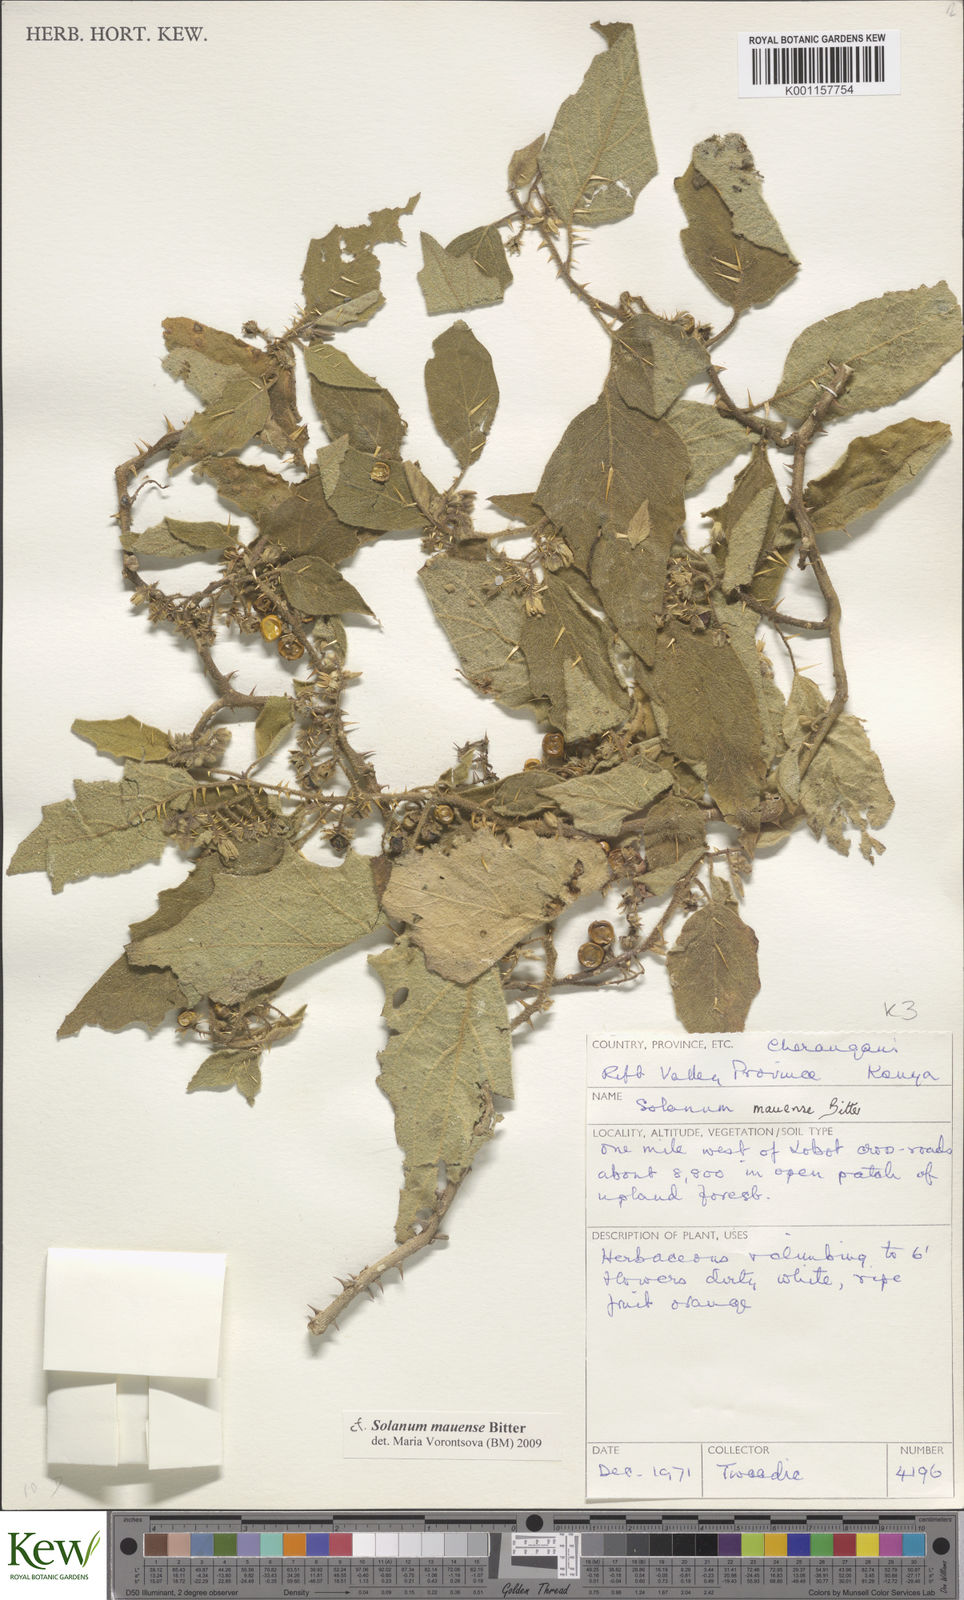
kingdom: Plantae
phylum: Tracheophyta
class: Magnoliopsida
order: Solanales
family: Solanaceae
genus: Solanum
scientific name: Solanum mauense
